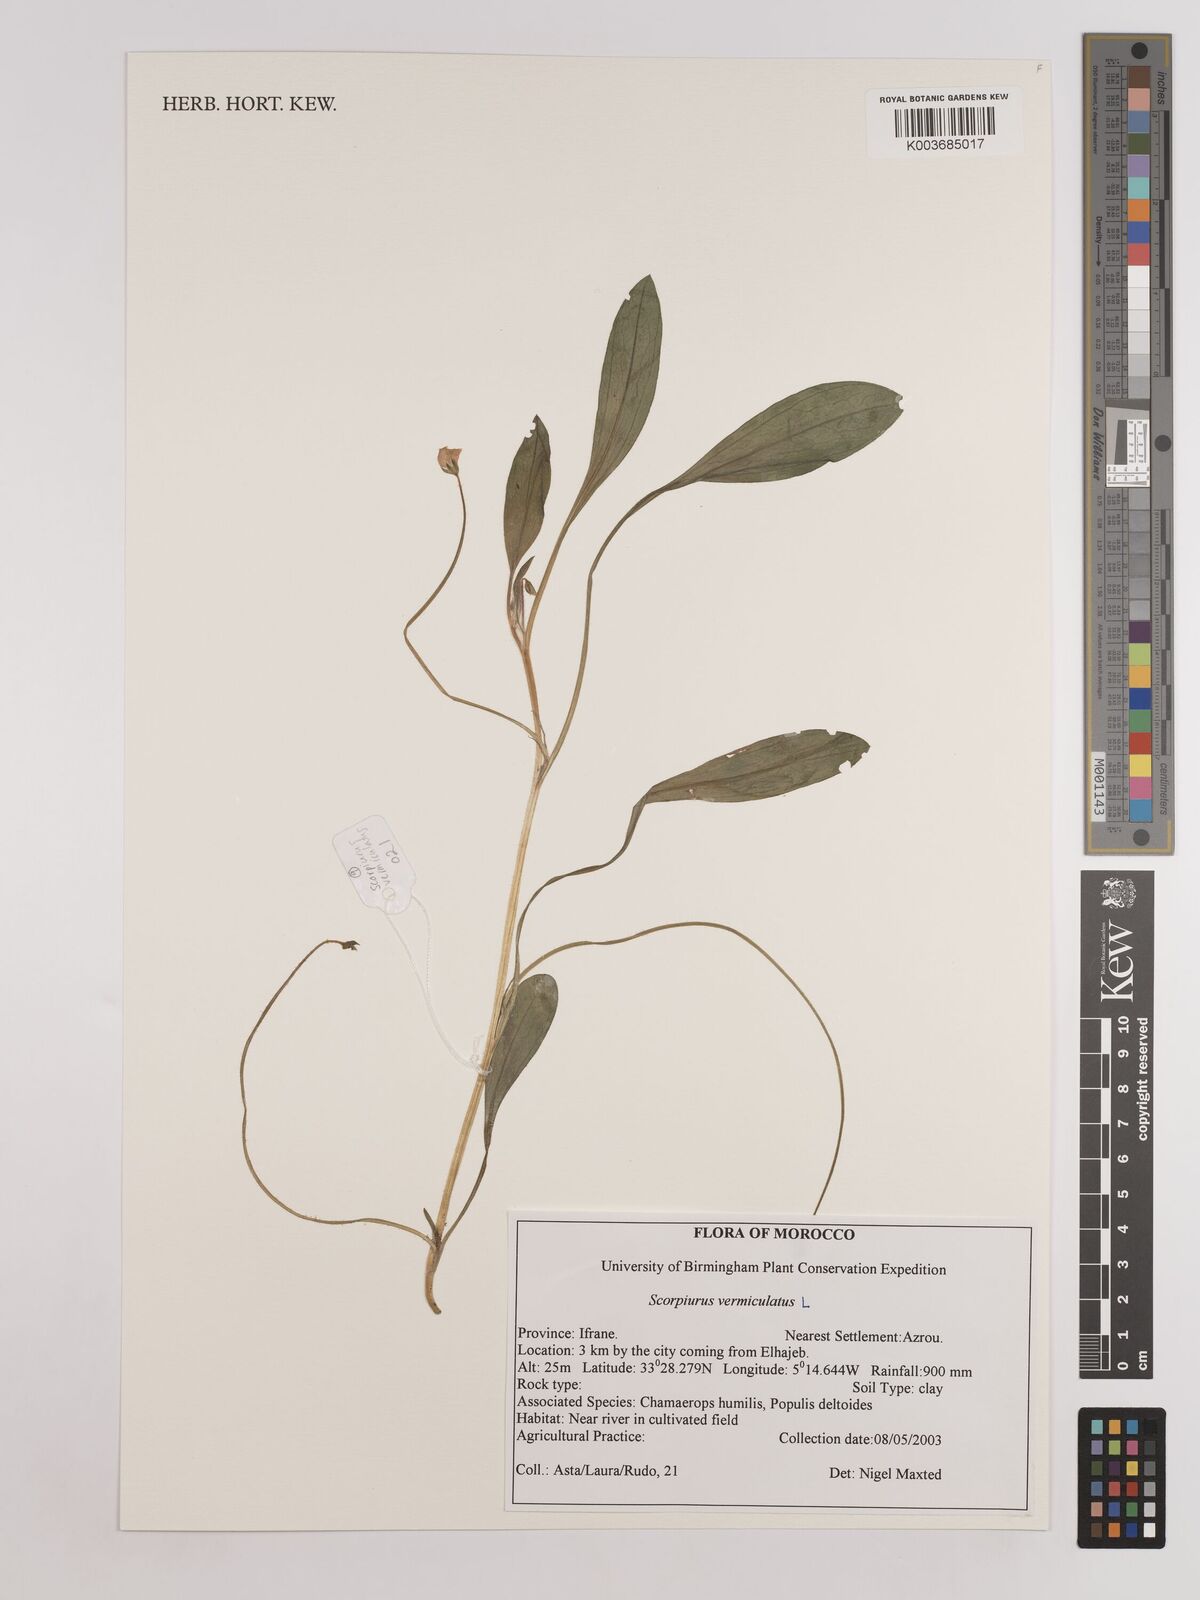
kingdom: Plantae
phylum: Tracheophyta
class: Magnoliopsida
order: Fabales
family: Fabaceae
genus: Scorpiurus
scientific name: Scorpiurus vermiculatus
